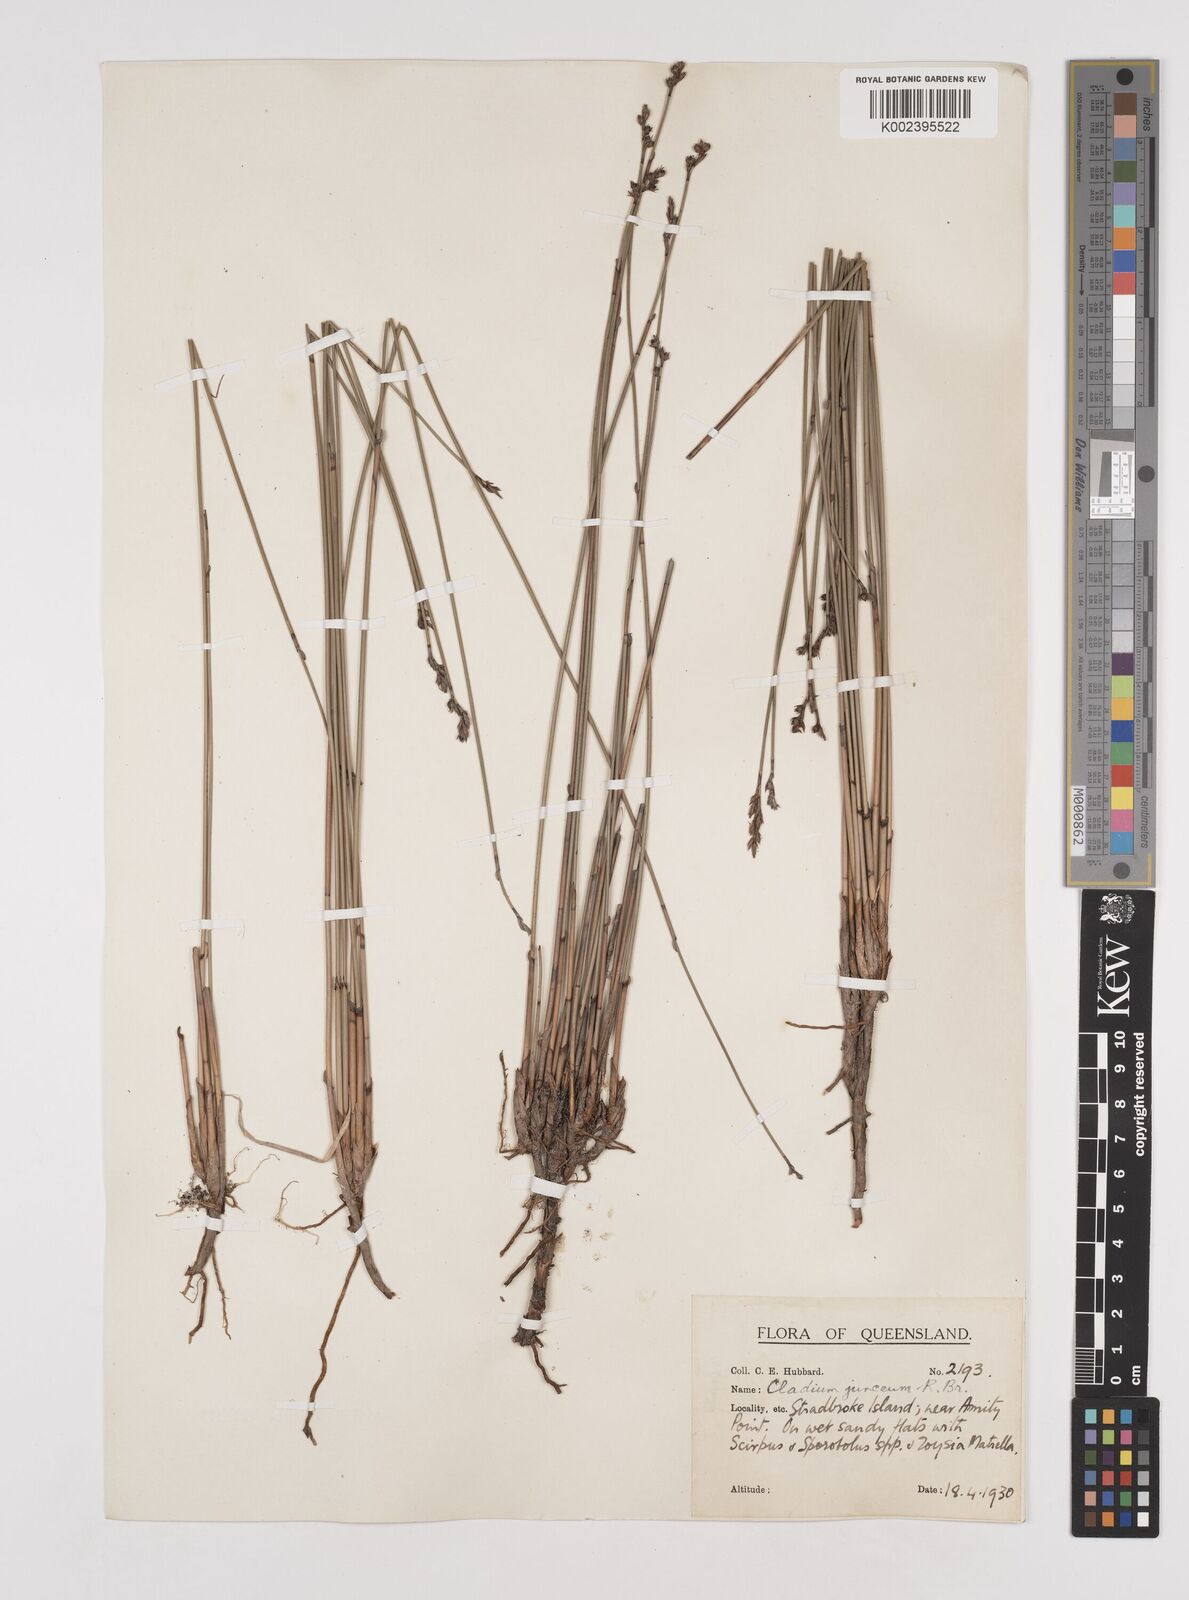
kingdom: Plantae
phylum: Tracheophyta
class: Liliopsida
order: Poales
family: Cyperaceae
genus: Machaerina
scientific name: Machaerina juncea
